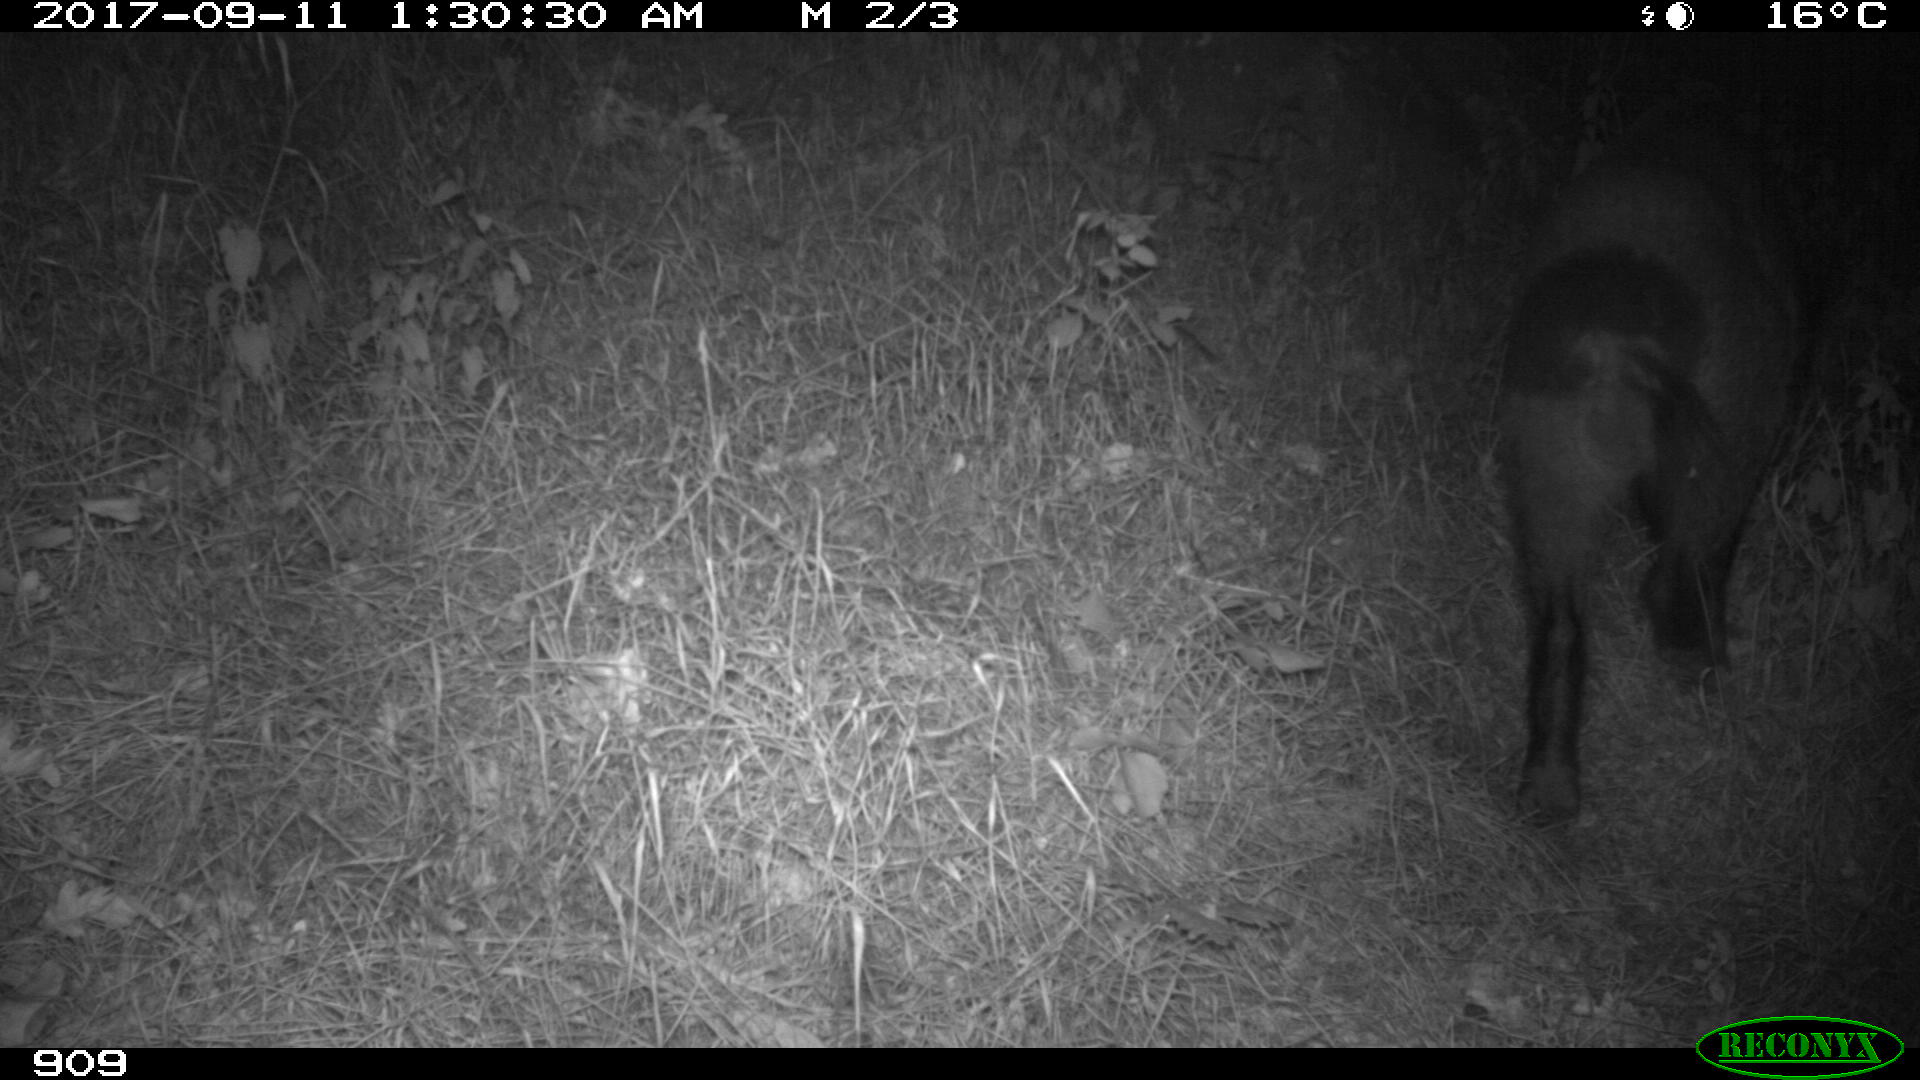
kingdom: Animalia
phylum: Chordata
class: Mammalia
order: Artiodactyla
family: Suidae
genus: Sus
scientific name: Sus scrofa
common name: Wild boar
